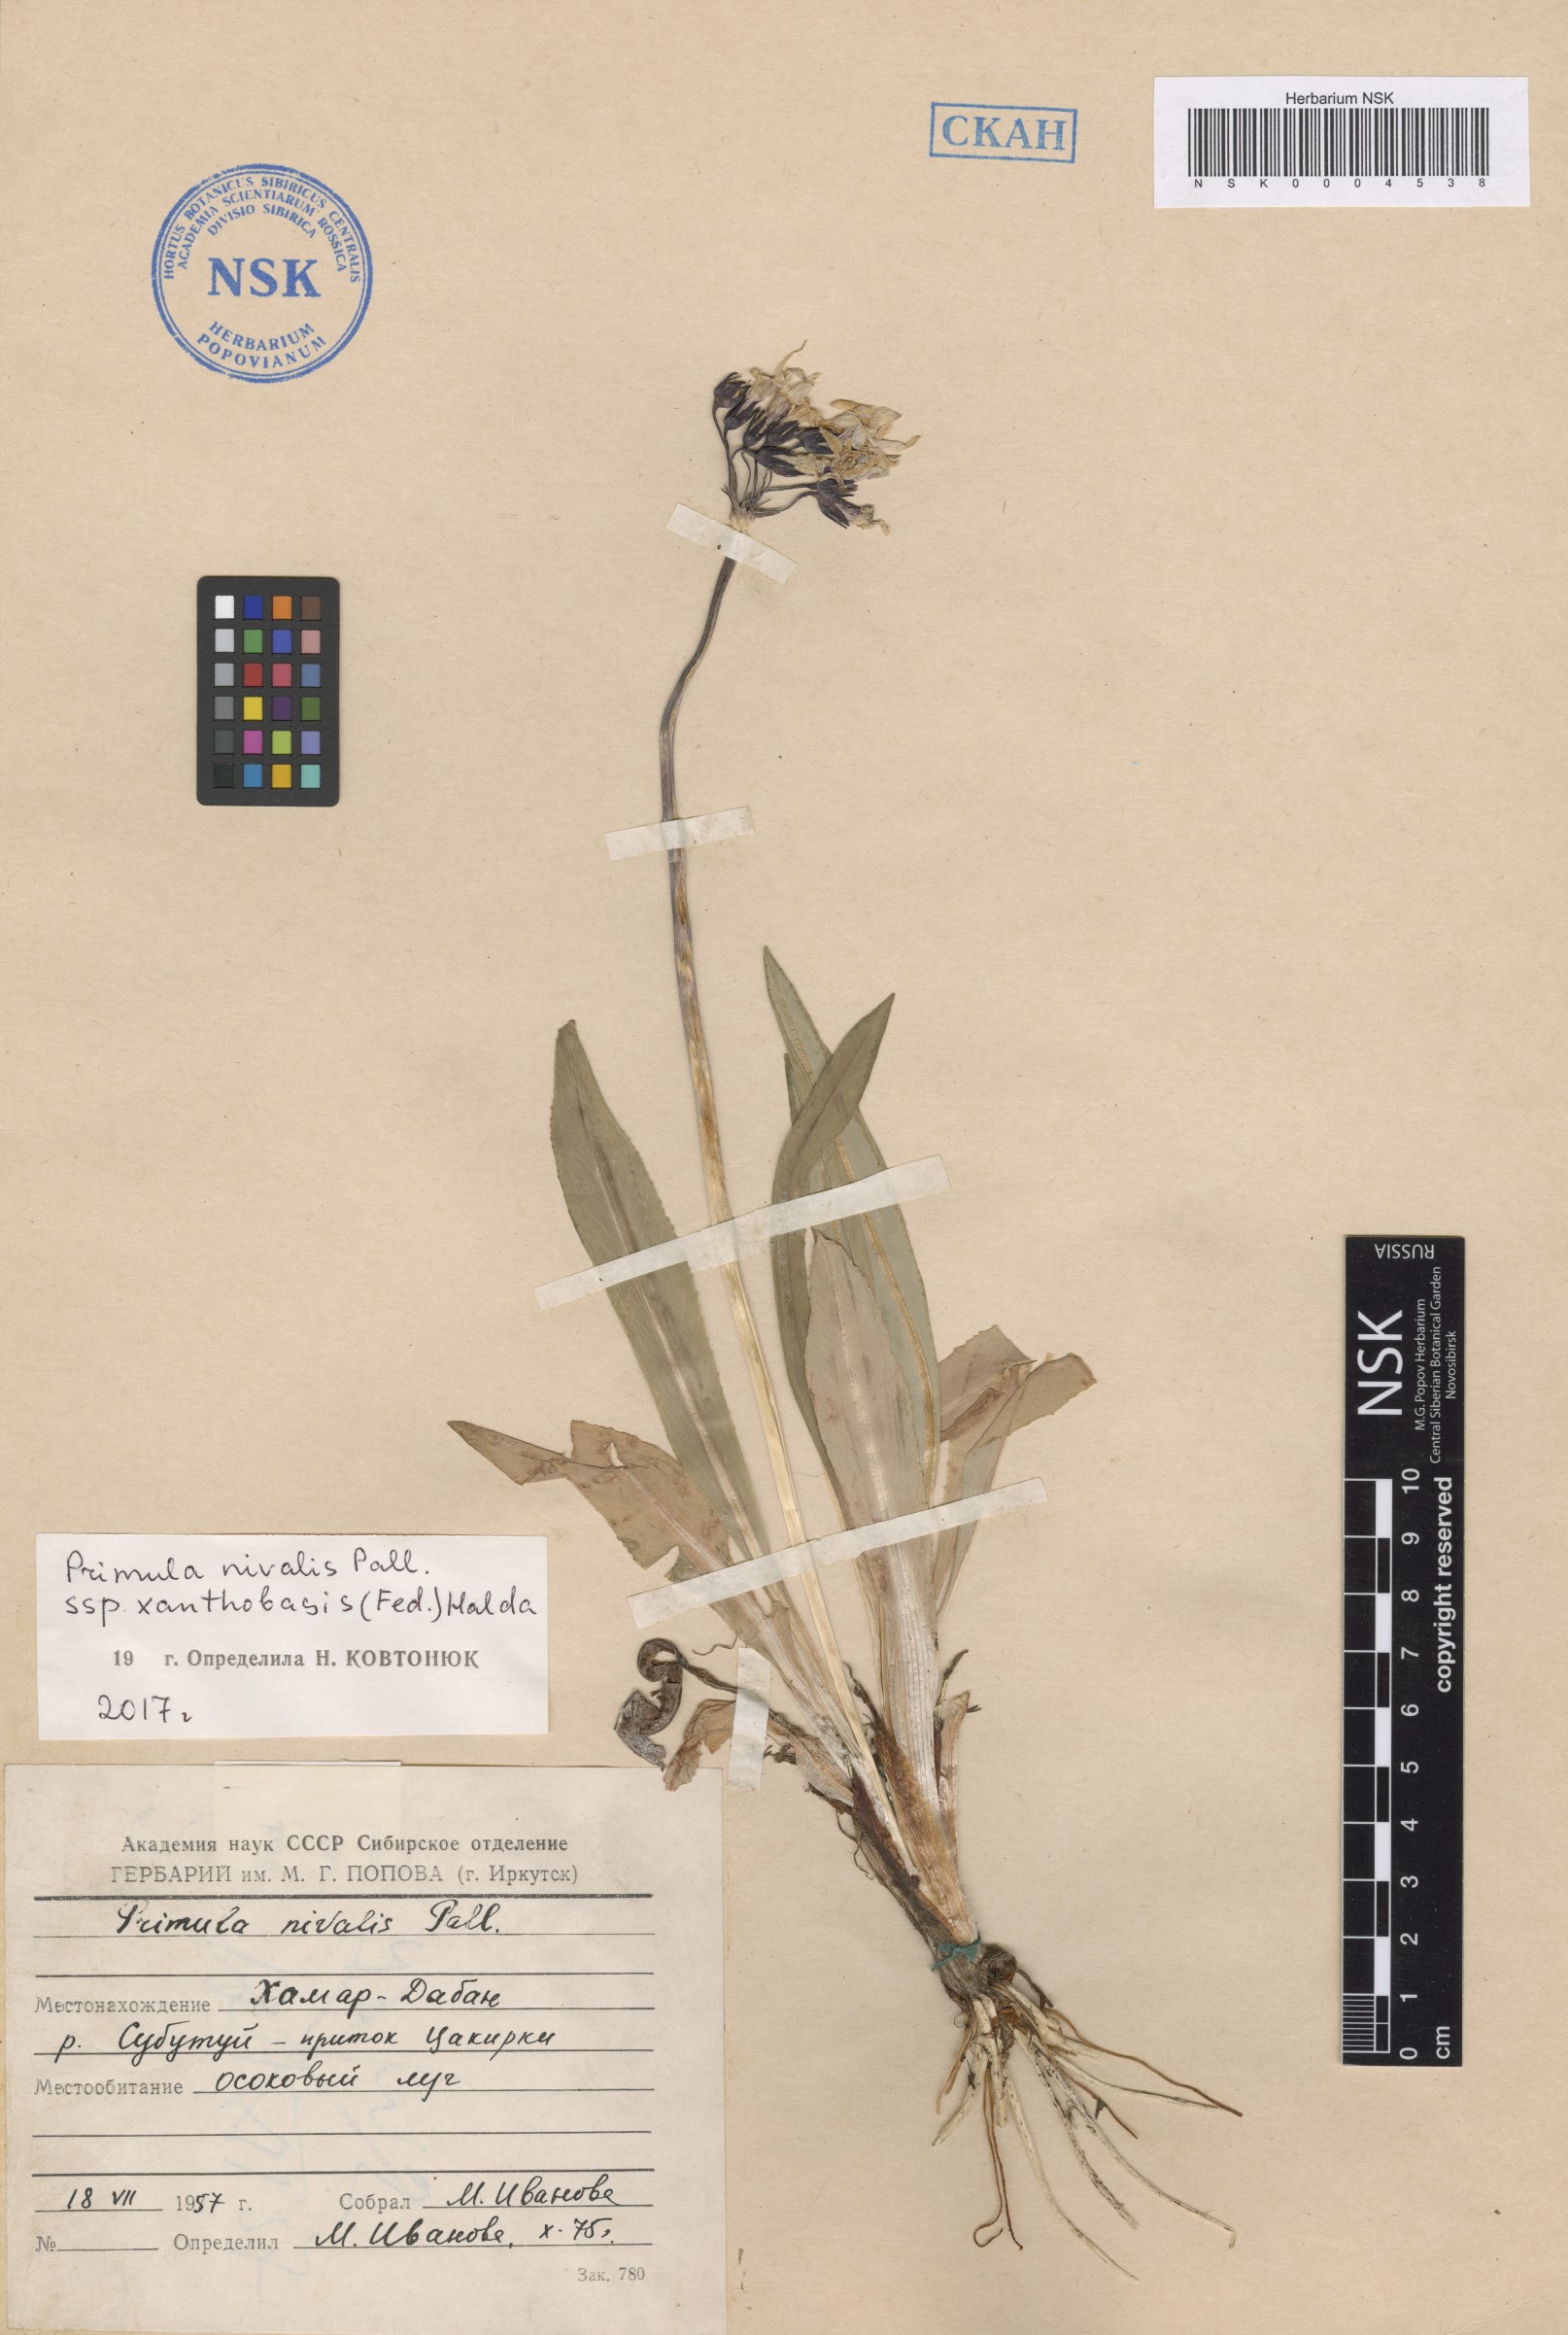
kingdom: Plantae
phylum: Tracheophyta
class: Magnoliopsida
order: Ericales
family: Primulaceae
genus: Primula
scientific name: Primula nivalis
